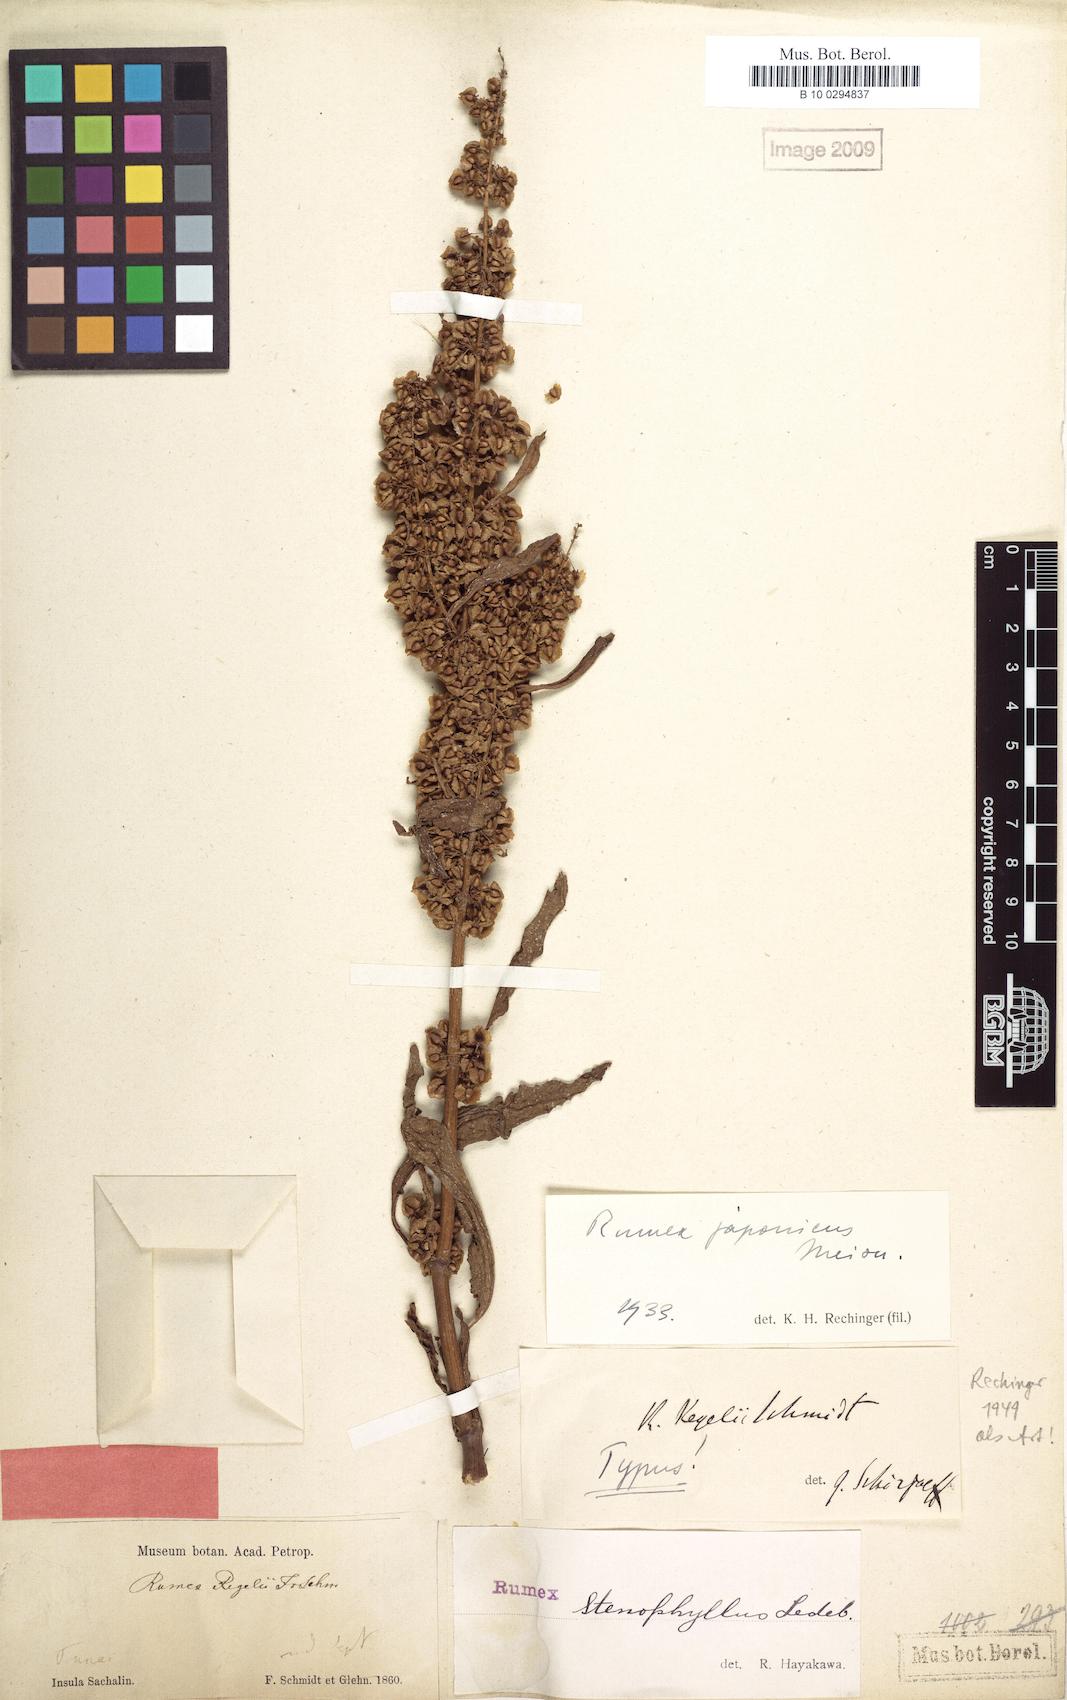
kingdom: Plantae
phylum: Tracheophyta
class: Magnoliopsida
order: Caryophyllales
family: Polygonaceae
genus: Rumex
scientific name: Rumex japonicus
